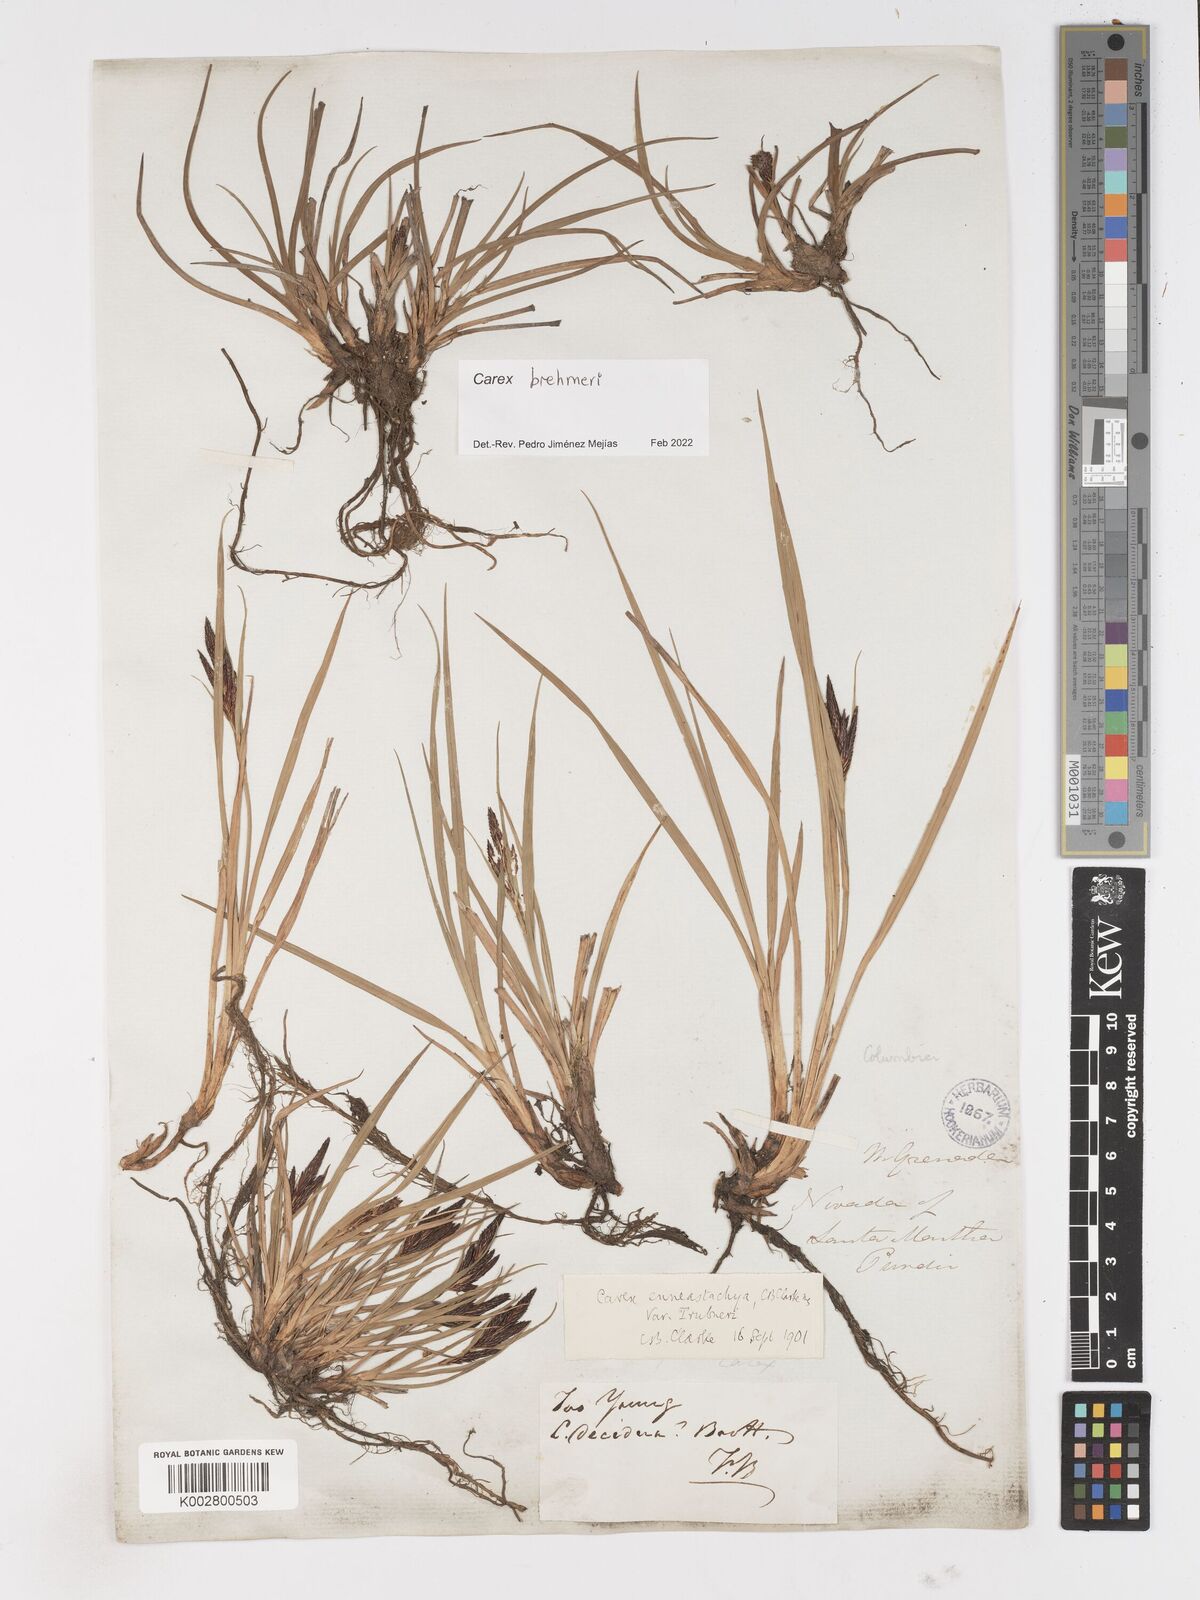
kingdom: Plantae
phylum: Tracheophyta
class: Liliopsida
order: Poales
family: Cyperaceae
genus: Carex
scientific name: Carex enneastachya
